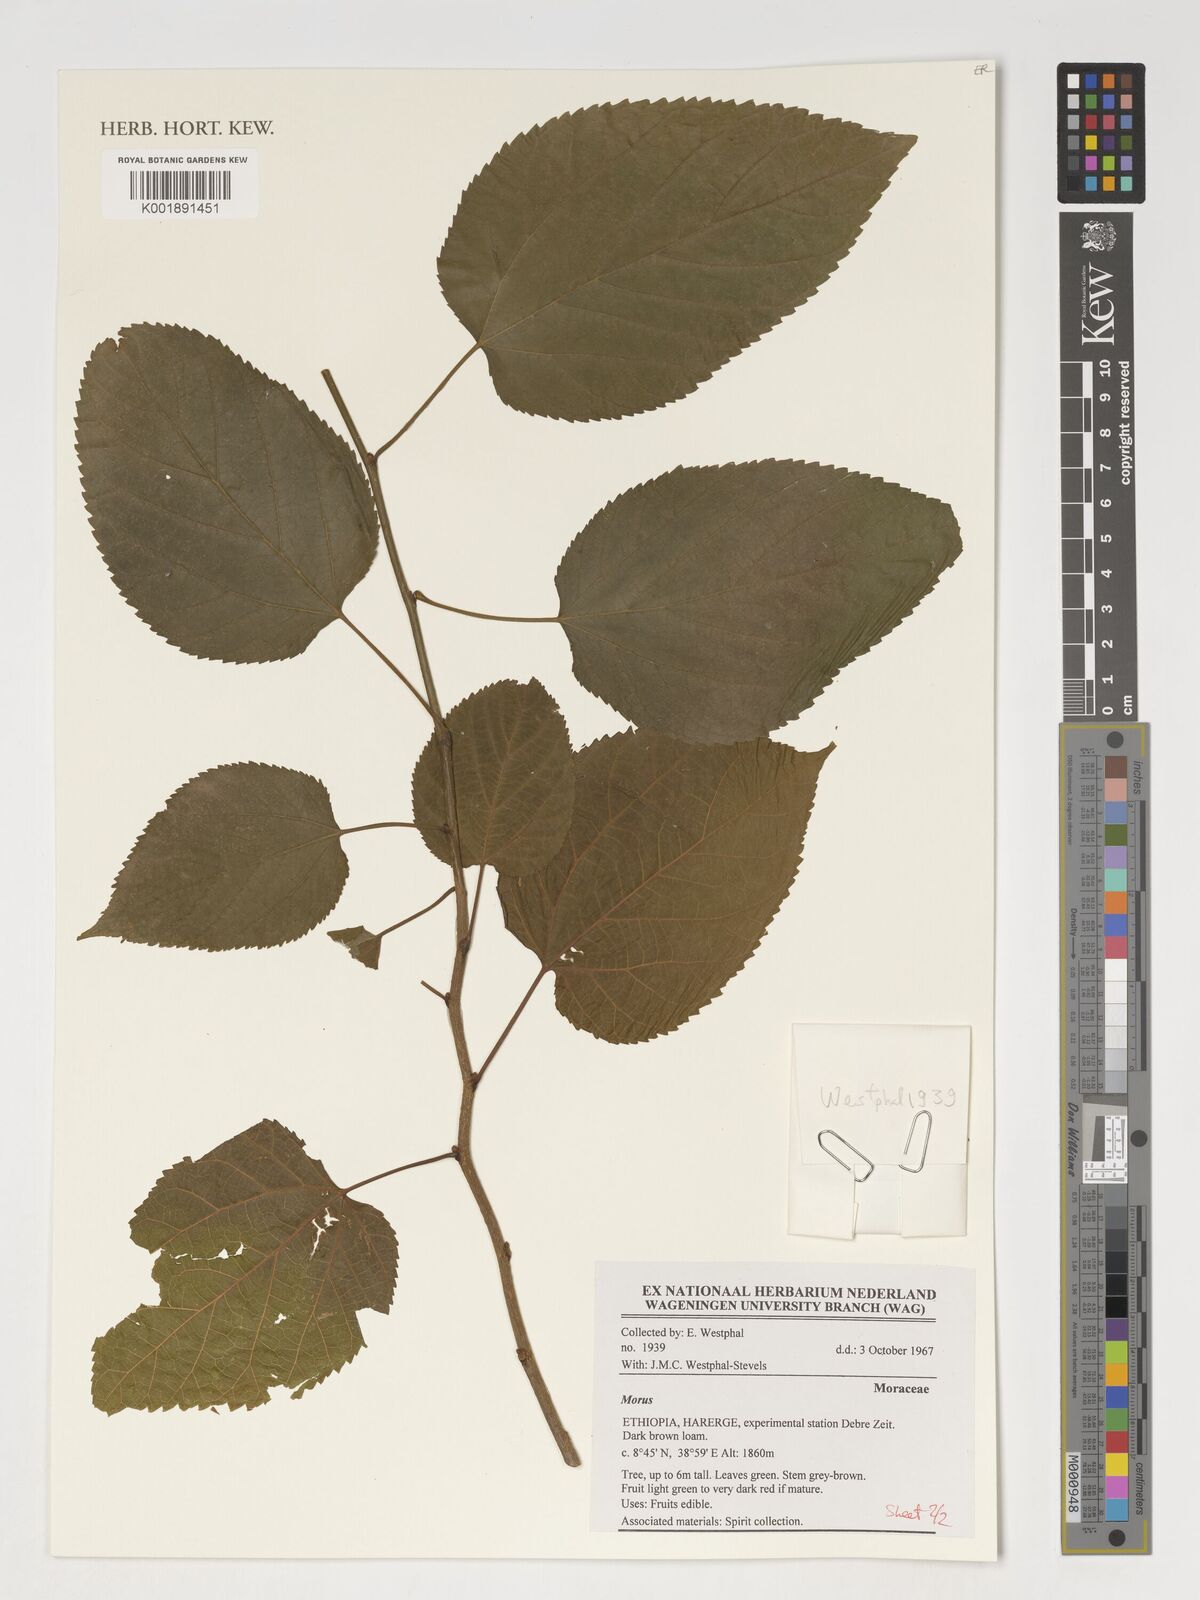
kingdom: Plantae
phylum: Tracheophyta
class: Magnoliopsida
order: Rosales
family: Moraceae
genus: Morus
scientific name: Morus
